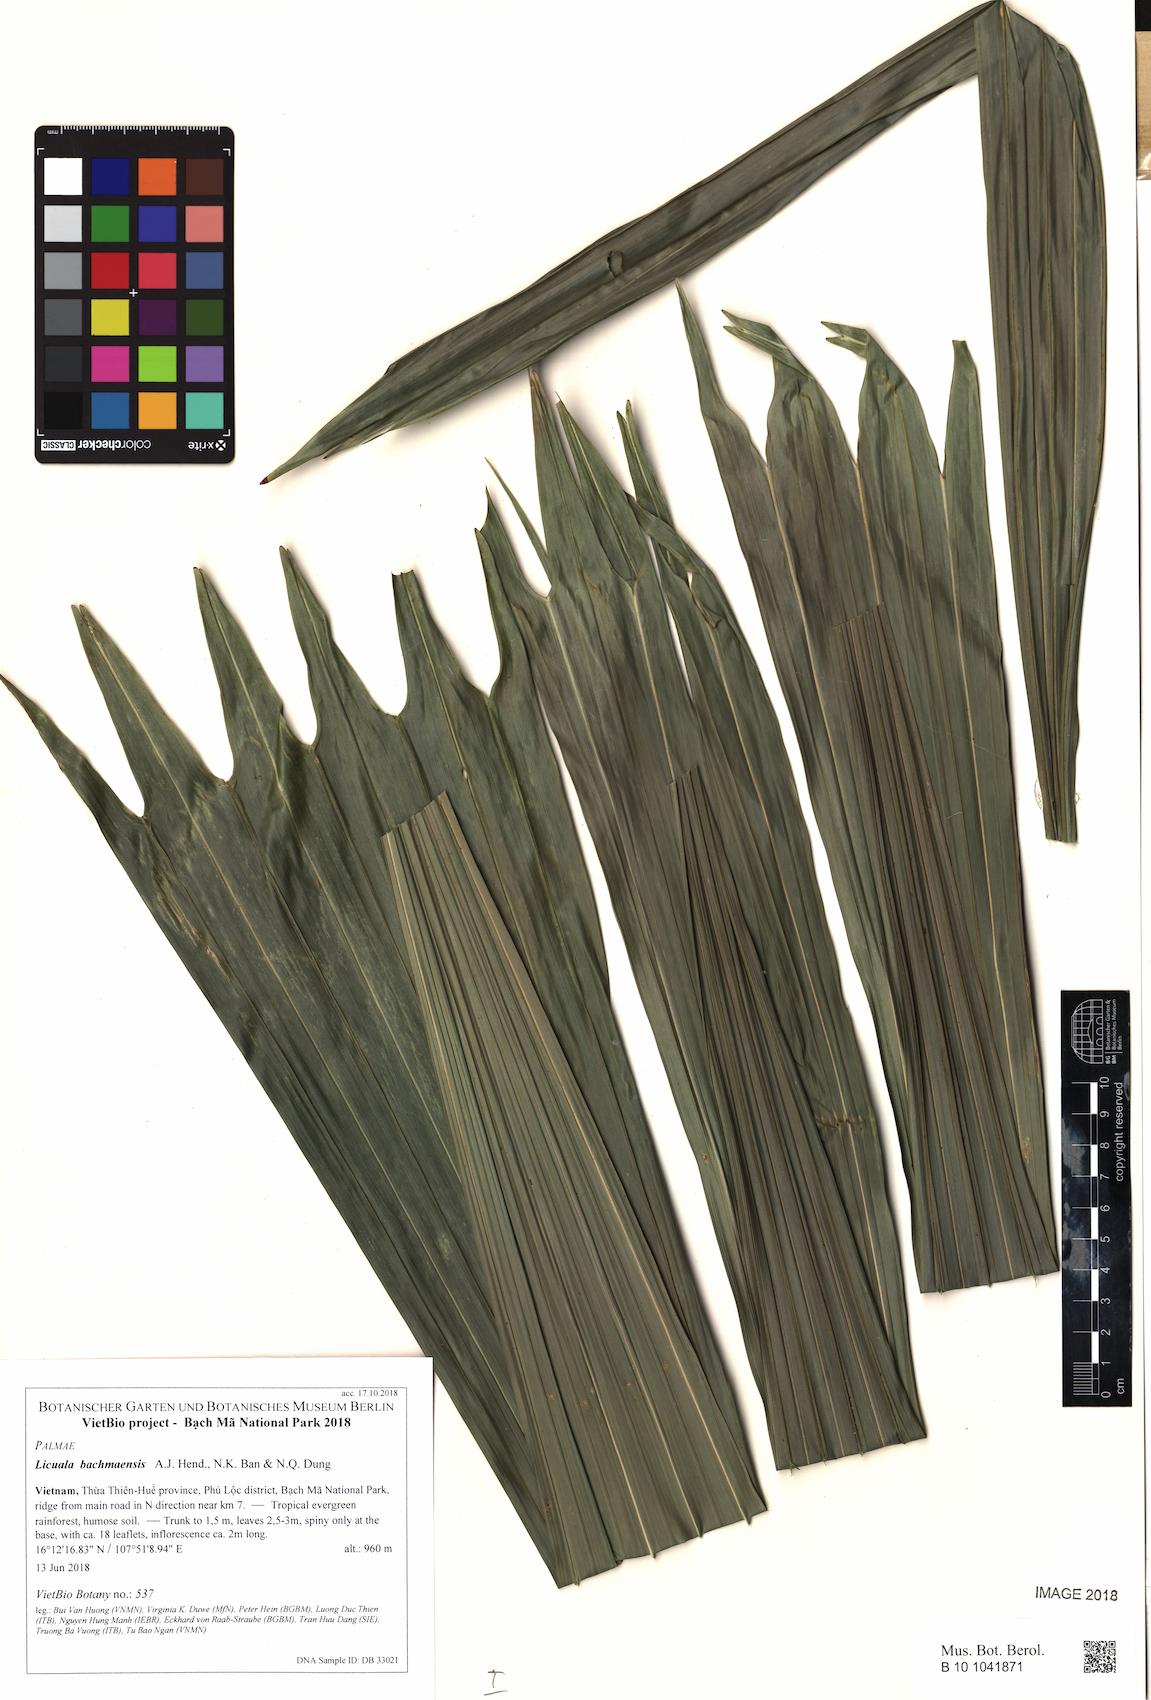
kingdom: Plantae
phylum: Tracheophyta
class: Liliopsida
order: Arecales
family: Arecaceae
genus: Licuala
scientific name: Licuala bachmaensis
